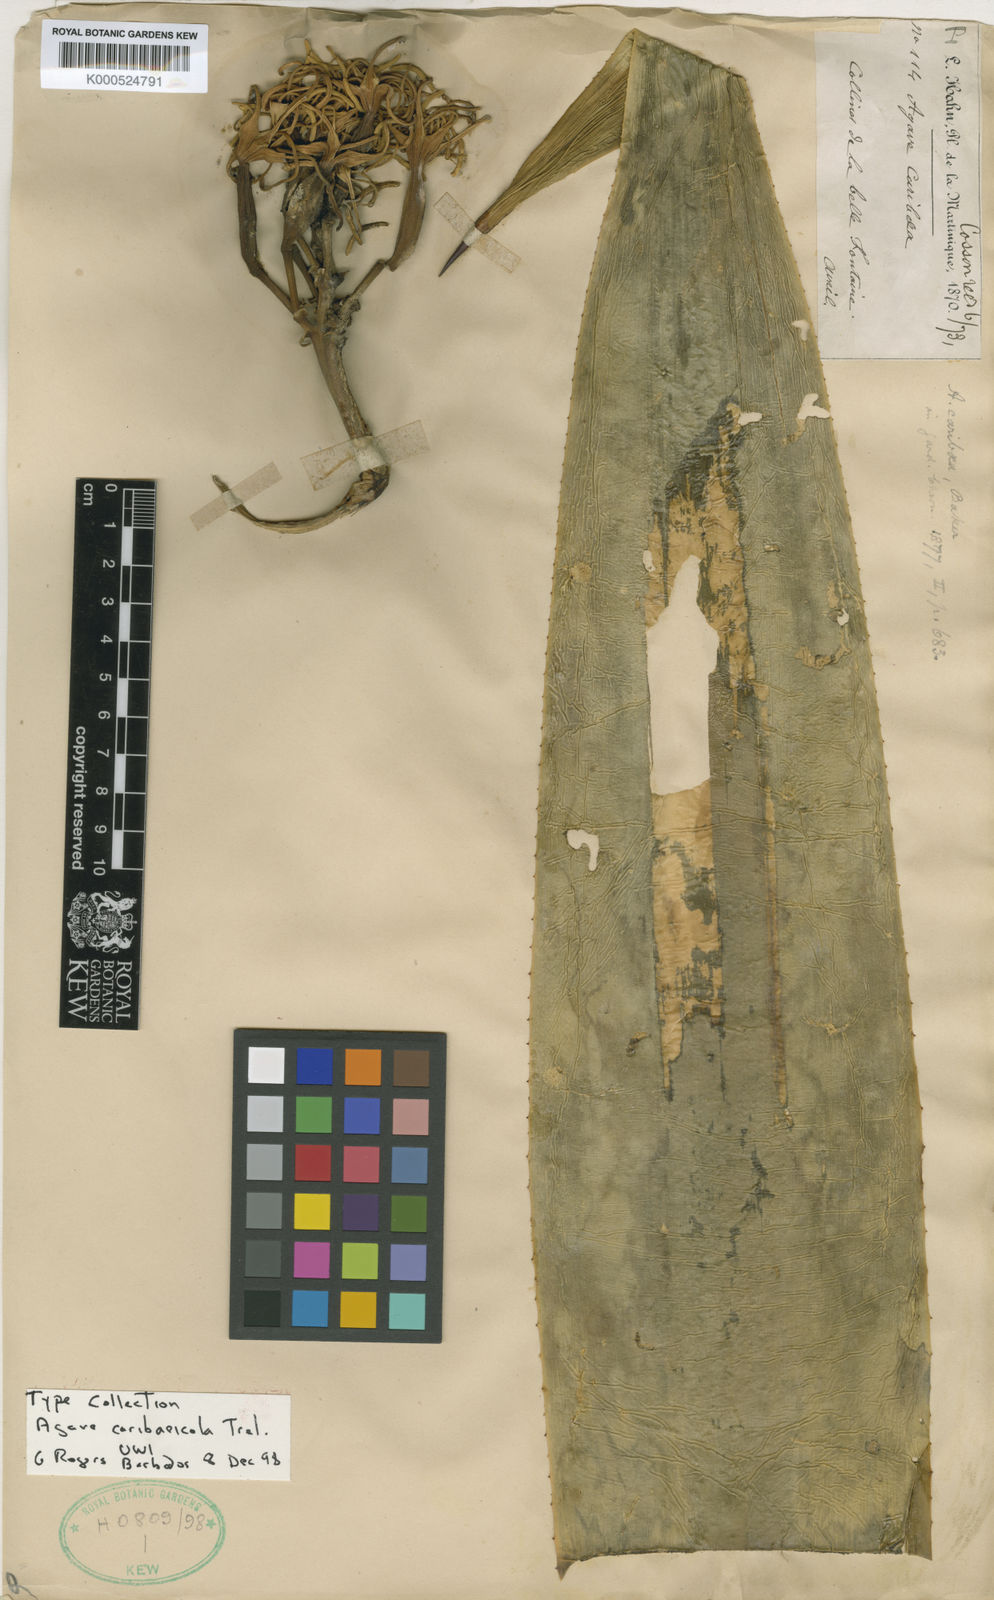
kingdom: Plantae
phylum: Tracheophyta
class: Liliopsida
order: Asparagales
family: Asparagaceae
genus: Agave
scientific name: Agave caribaeicola
